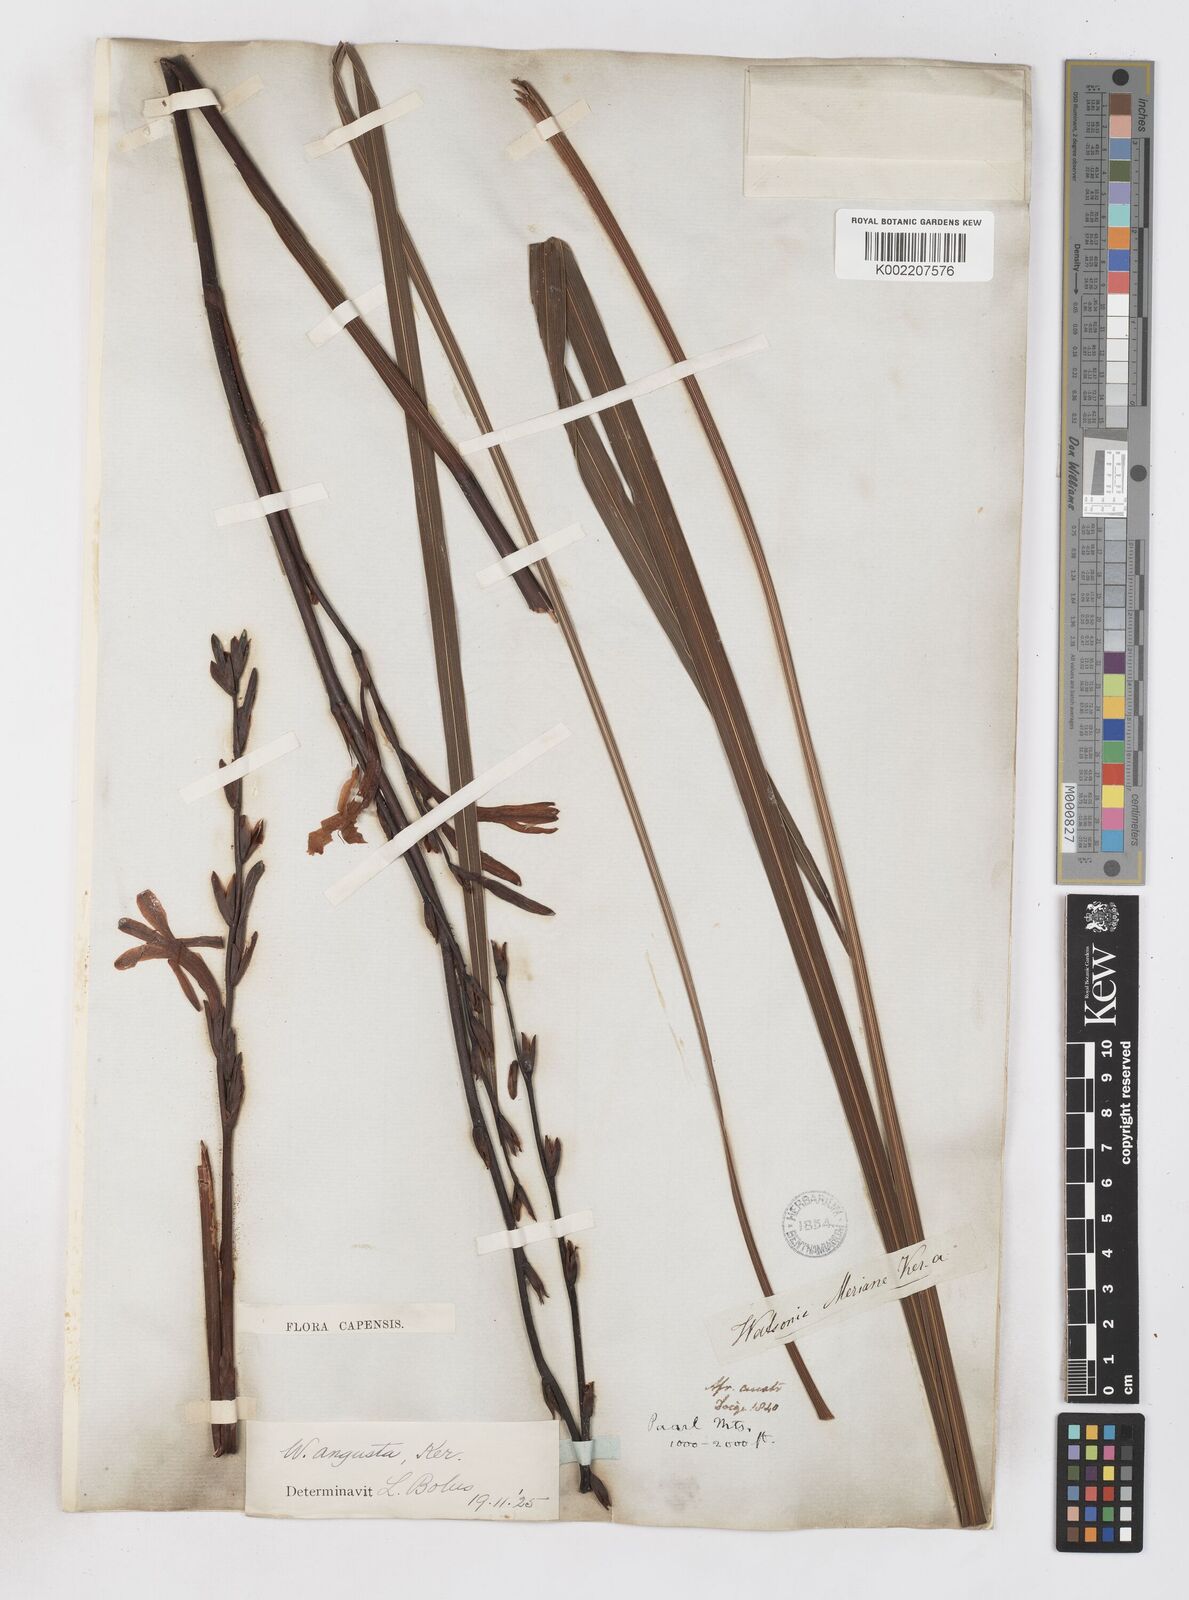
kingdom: Plantae
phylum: Tracheophyta
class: Liliopsida
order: Asparagales
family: Iridaceae
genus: Watsonia
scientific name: Watsonia
